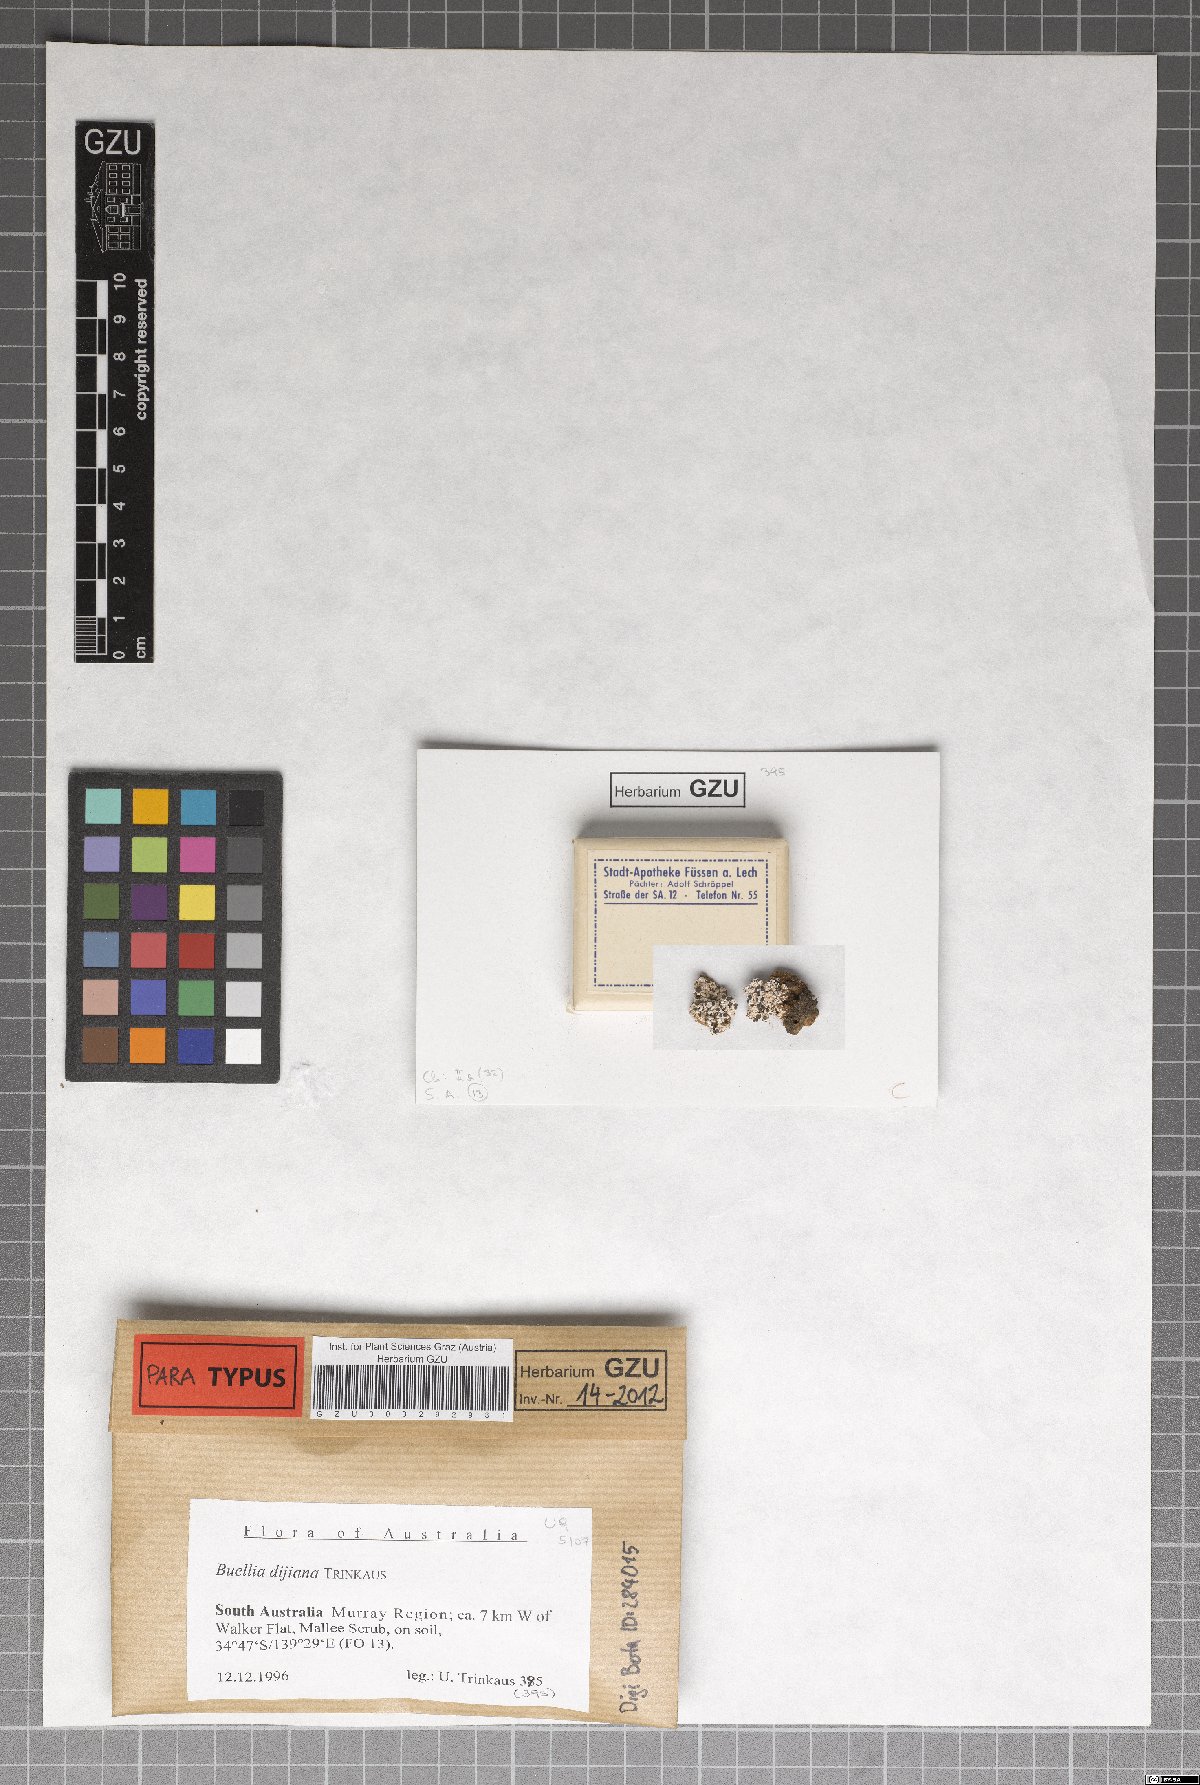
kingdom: Fungi
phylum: Ascomycota
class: Lecanoromycetes
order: Caliciales
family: Caliciaceae
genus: Buellia
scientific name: Buellia dayboroana
